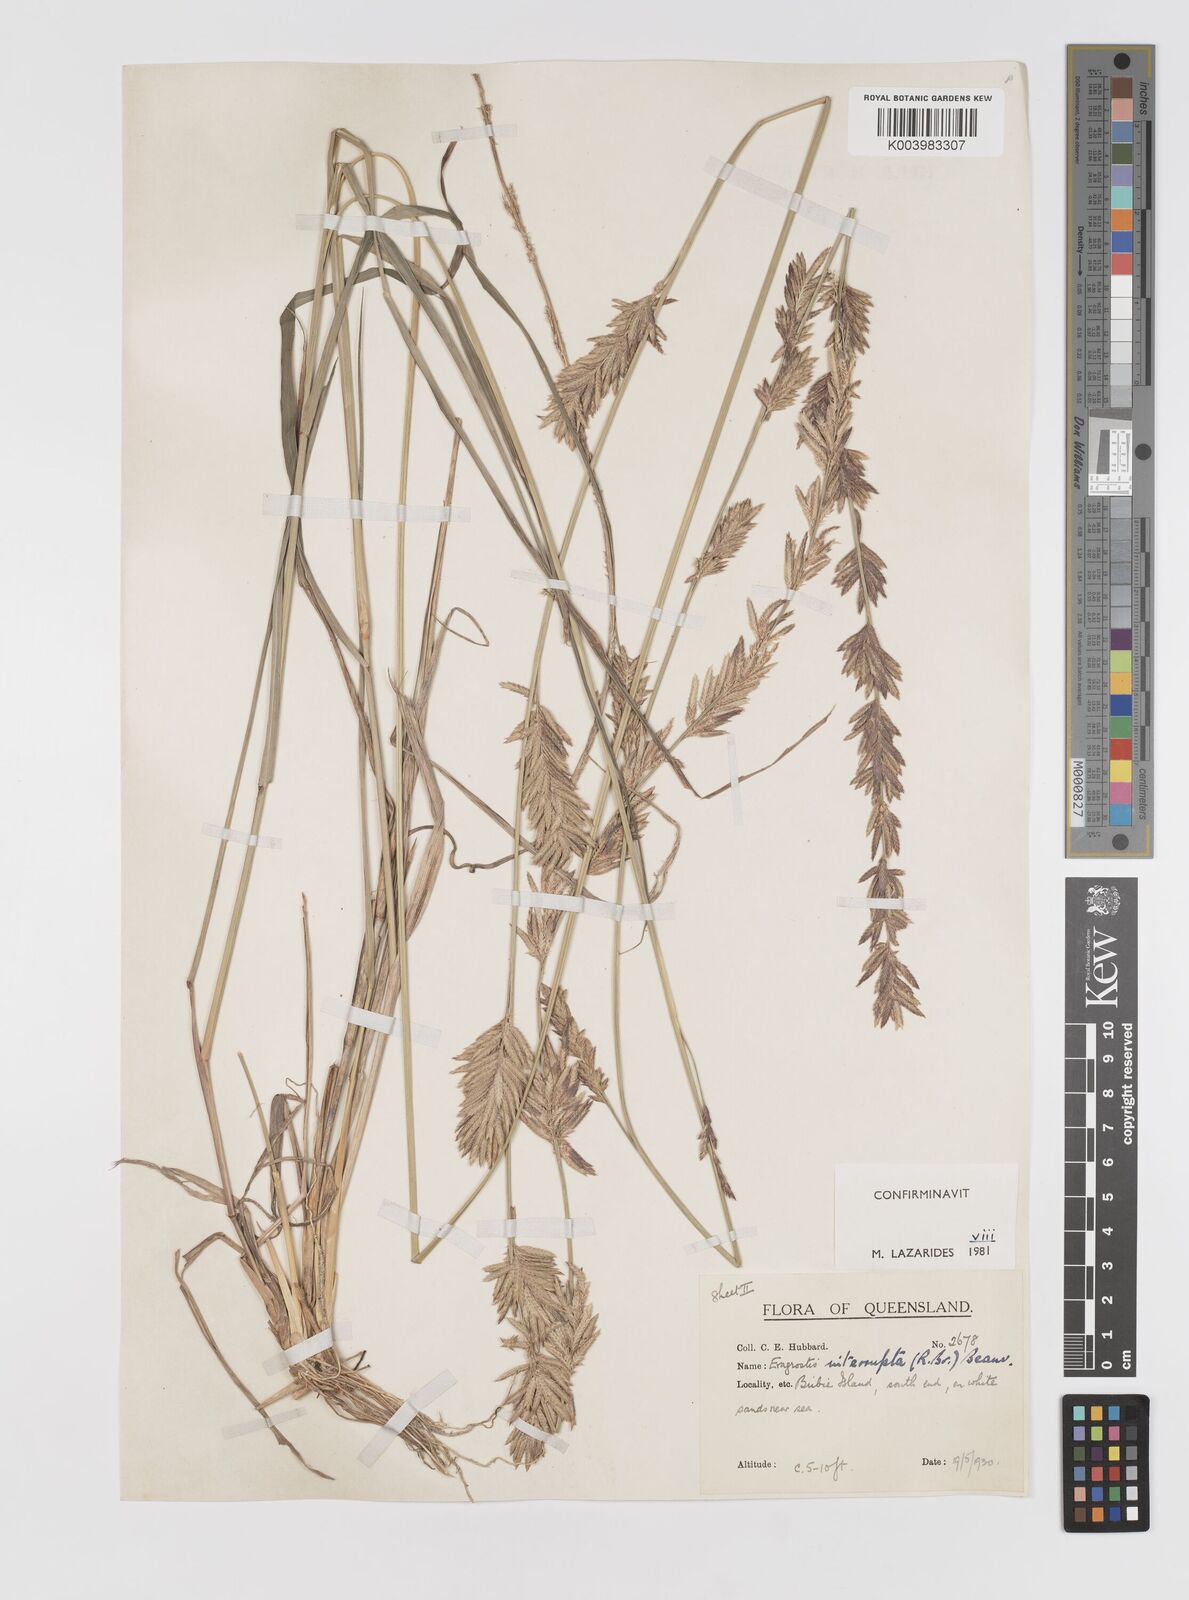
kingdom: Plantae
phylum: Tracheophyta
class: Liliopsida
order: Poales
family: Poaceae
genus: Eragrostis
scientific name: Eragrostis interrupta
